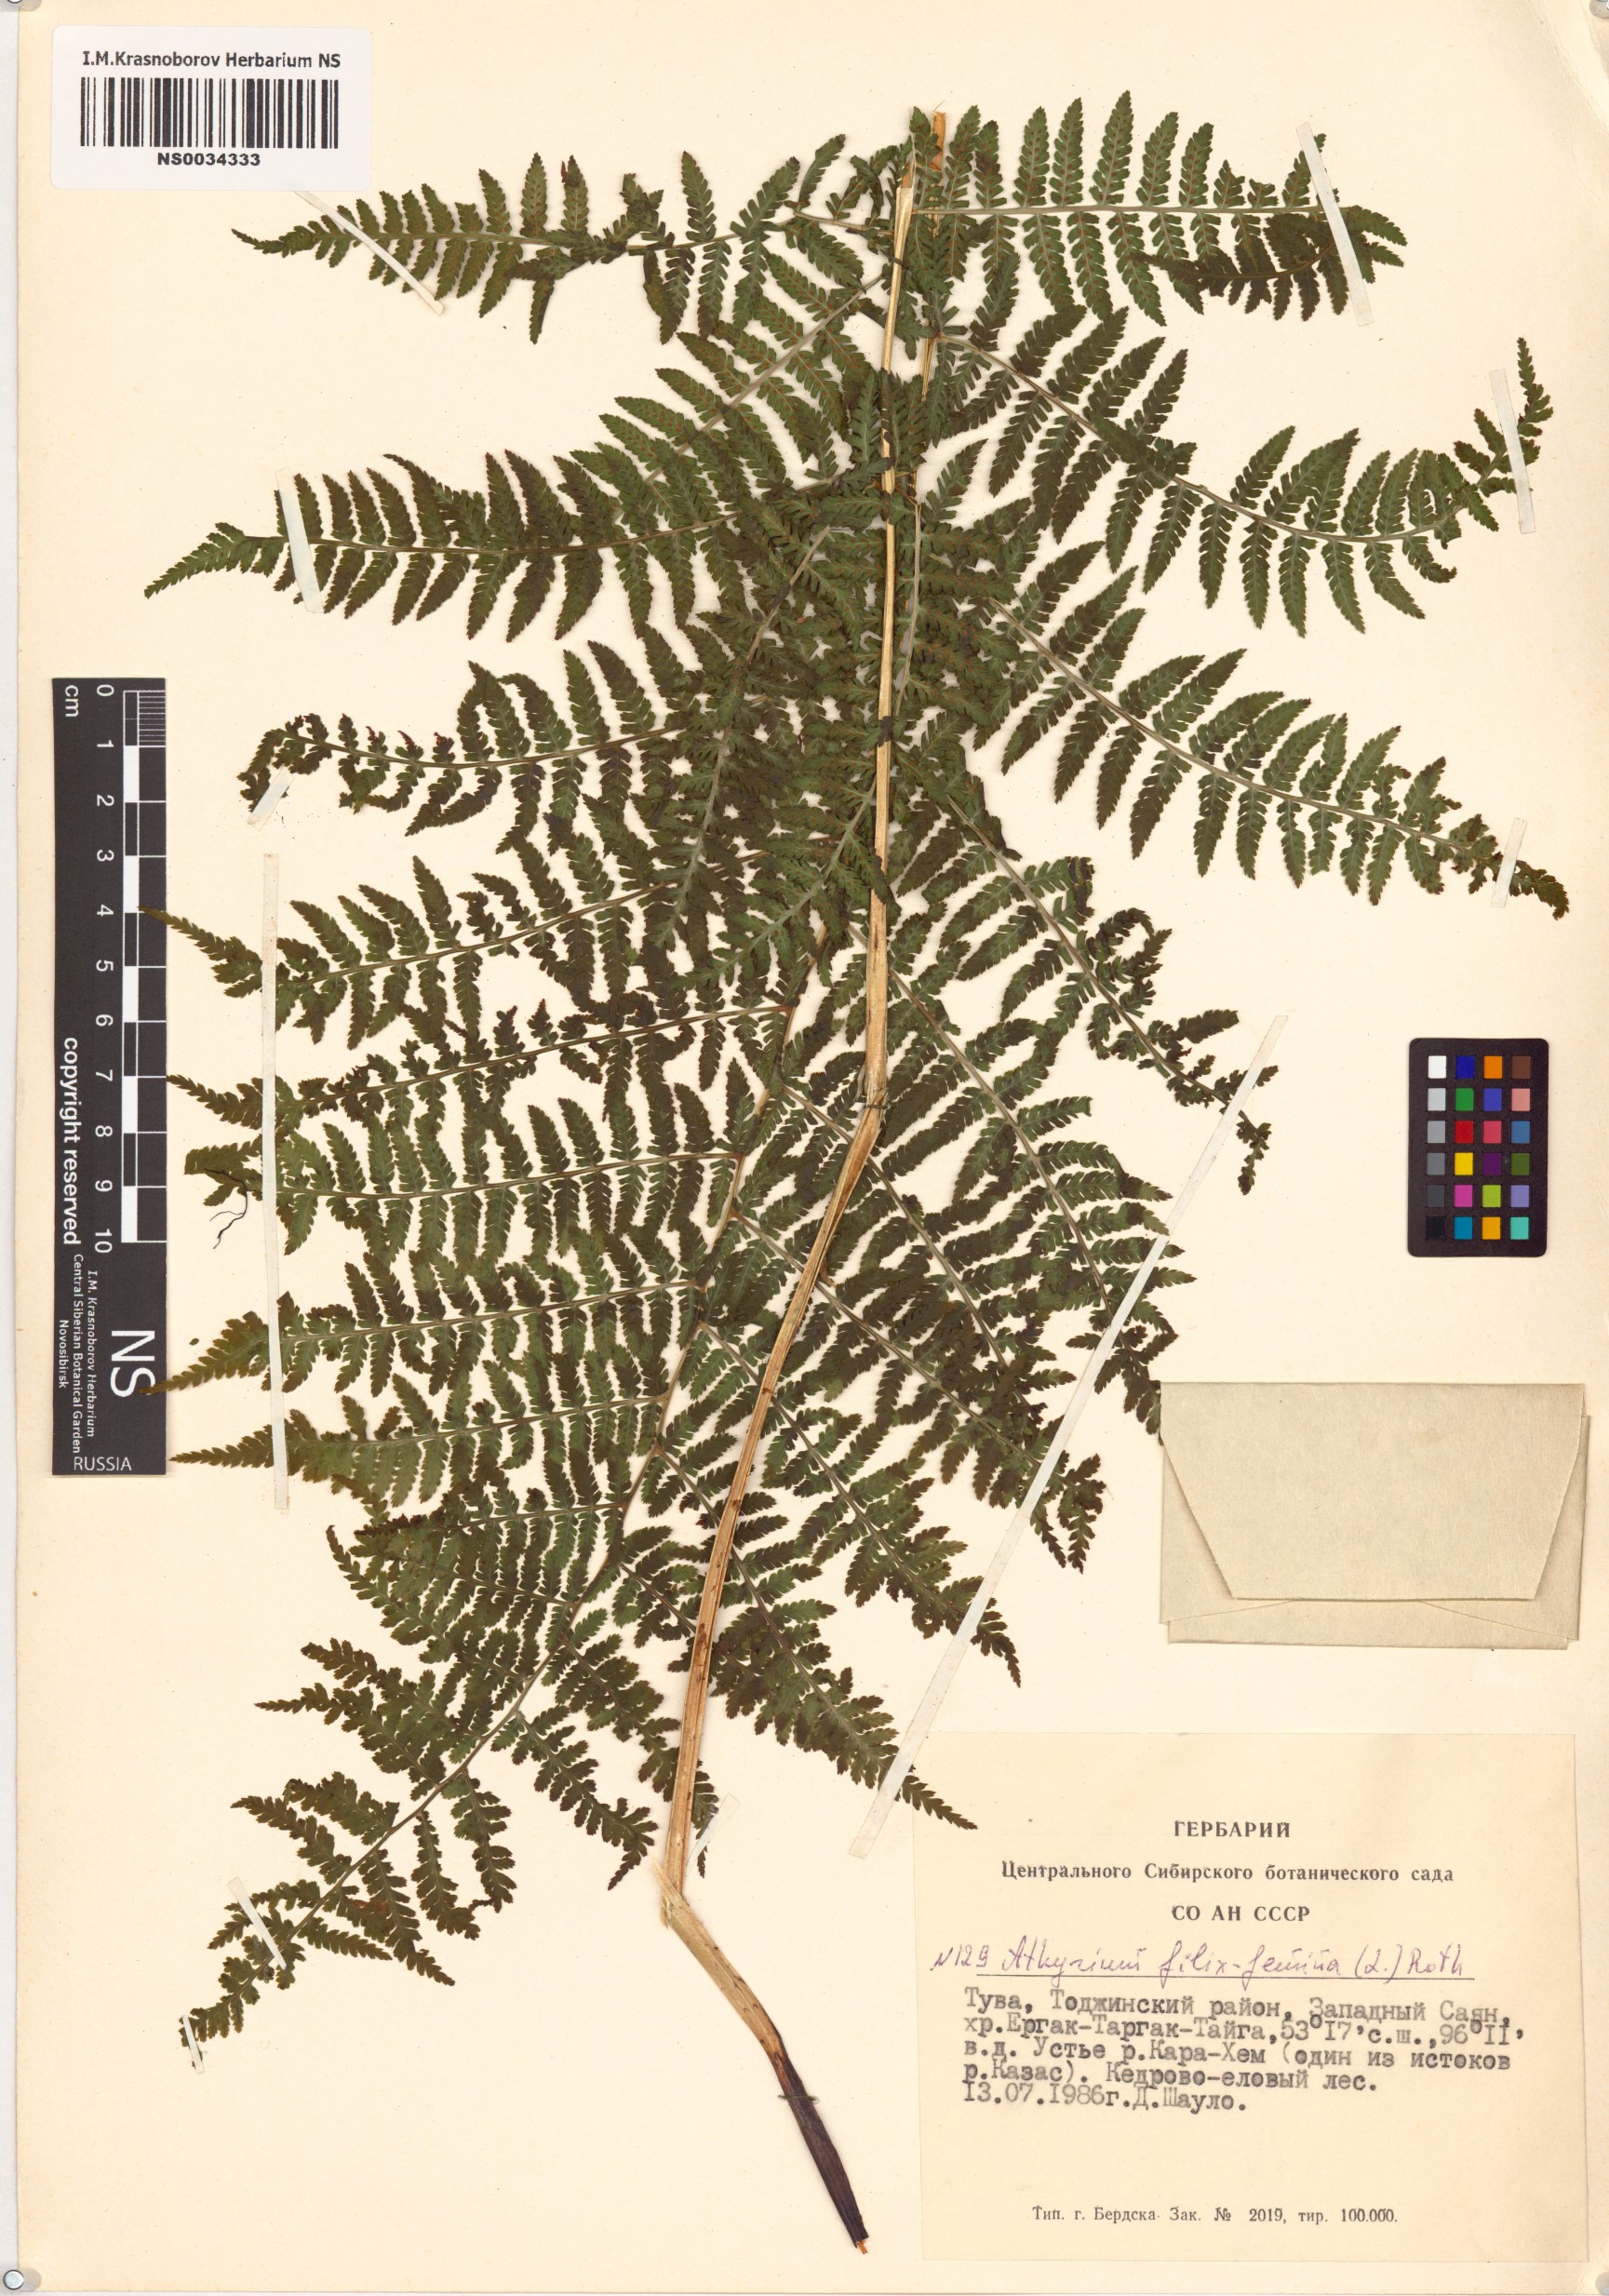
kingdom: Plantae
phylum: Tracheophyta
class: Polypodiopsida
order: Polypodiales
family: Athyriaceae
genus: Athyrium
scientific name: Athyrium filix-femina
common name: Lady fern
